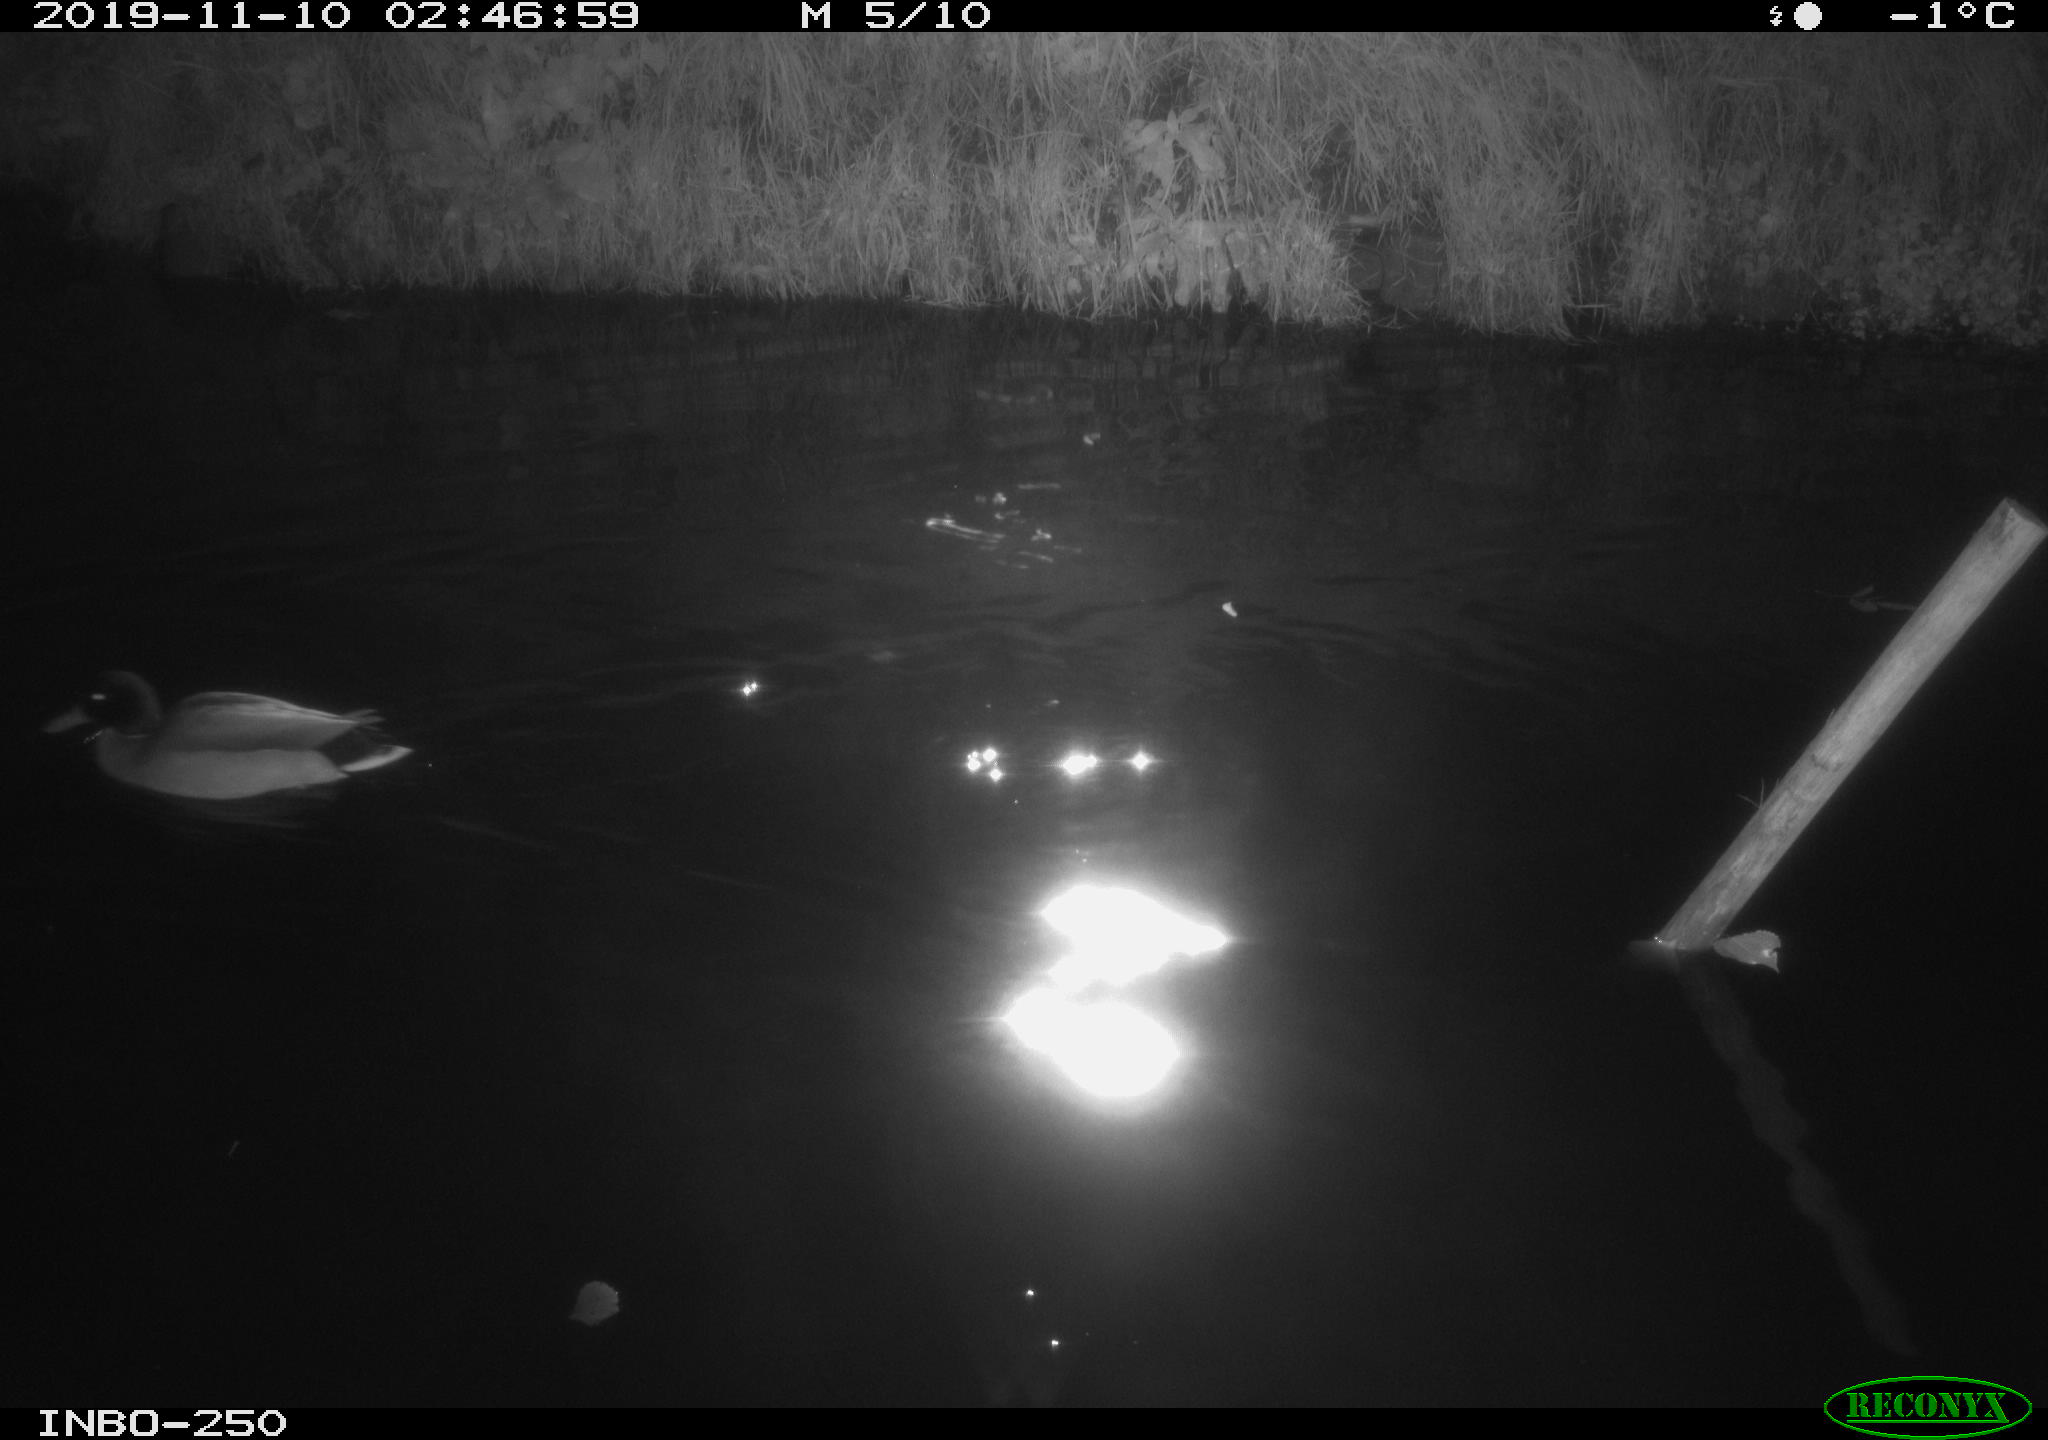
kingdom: Animalia
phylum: Chordata
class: Aves
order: Anseriformes
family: Anatidae
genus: Anas
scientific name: Anas platyrhynchos
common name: Mallard
